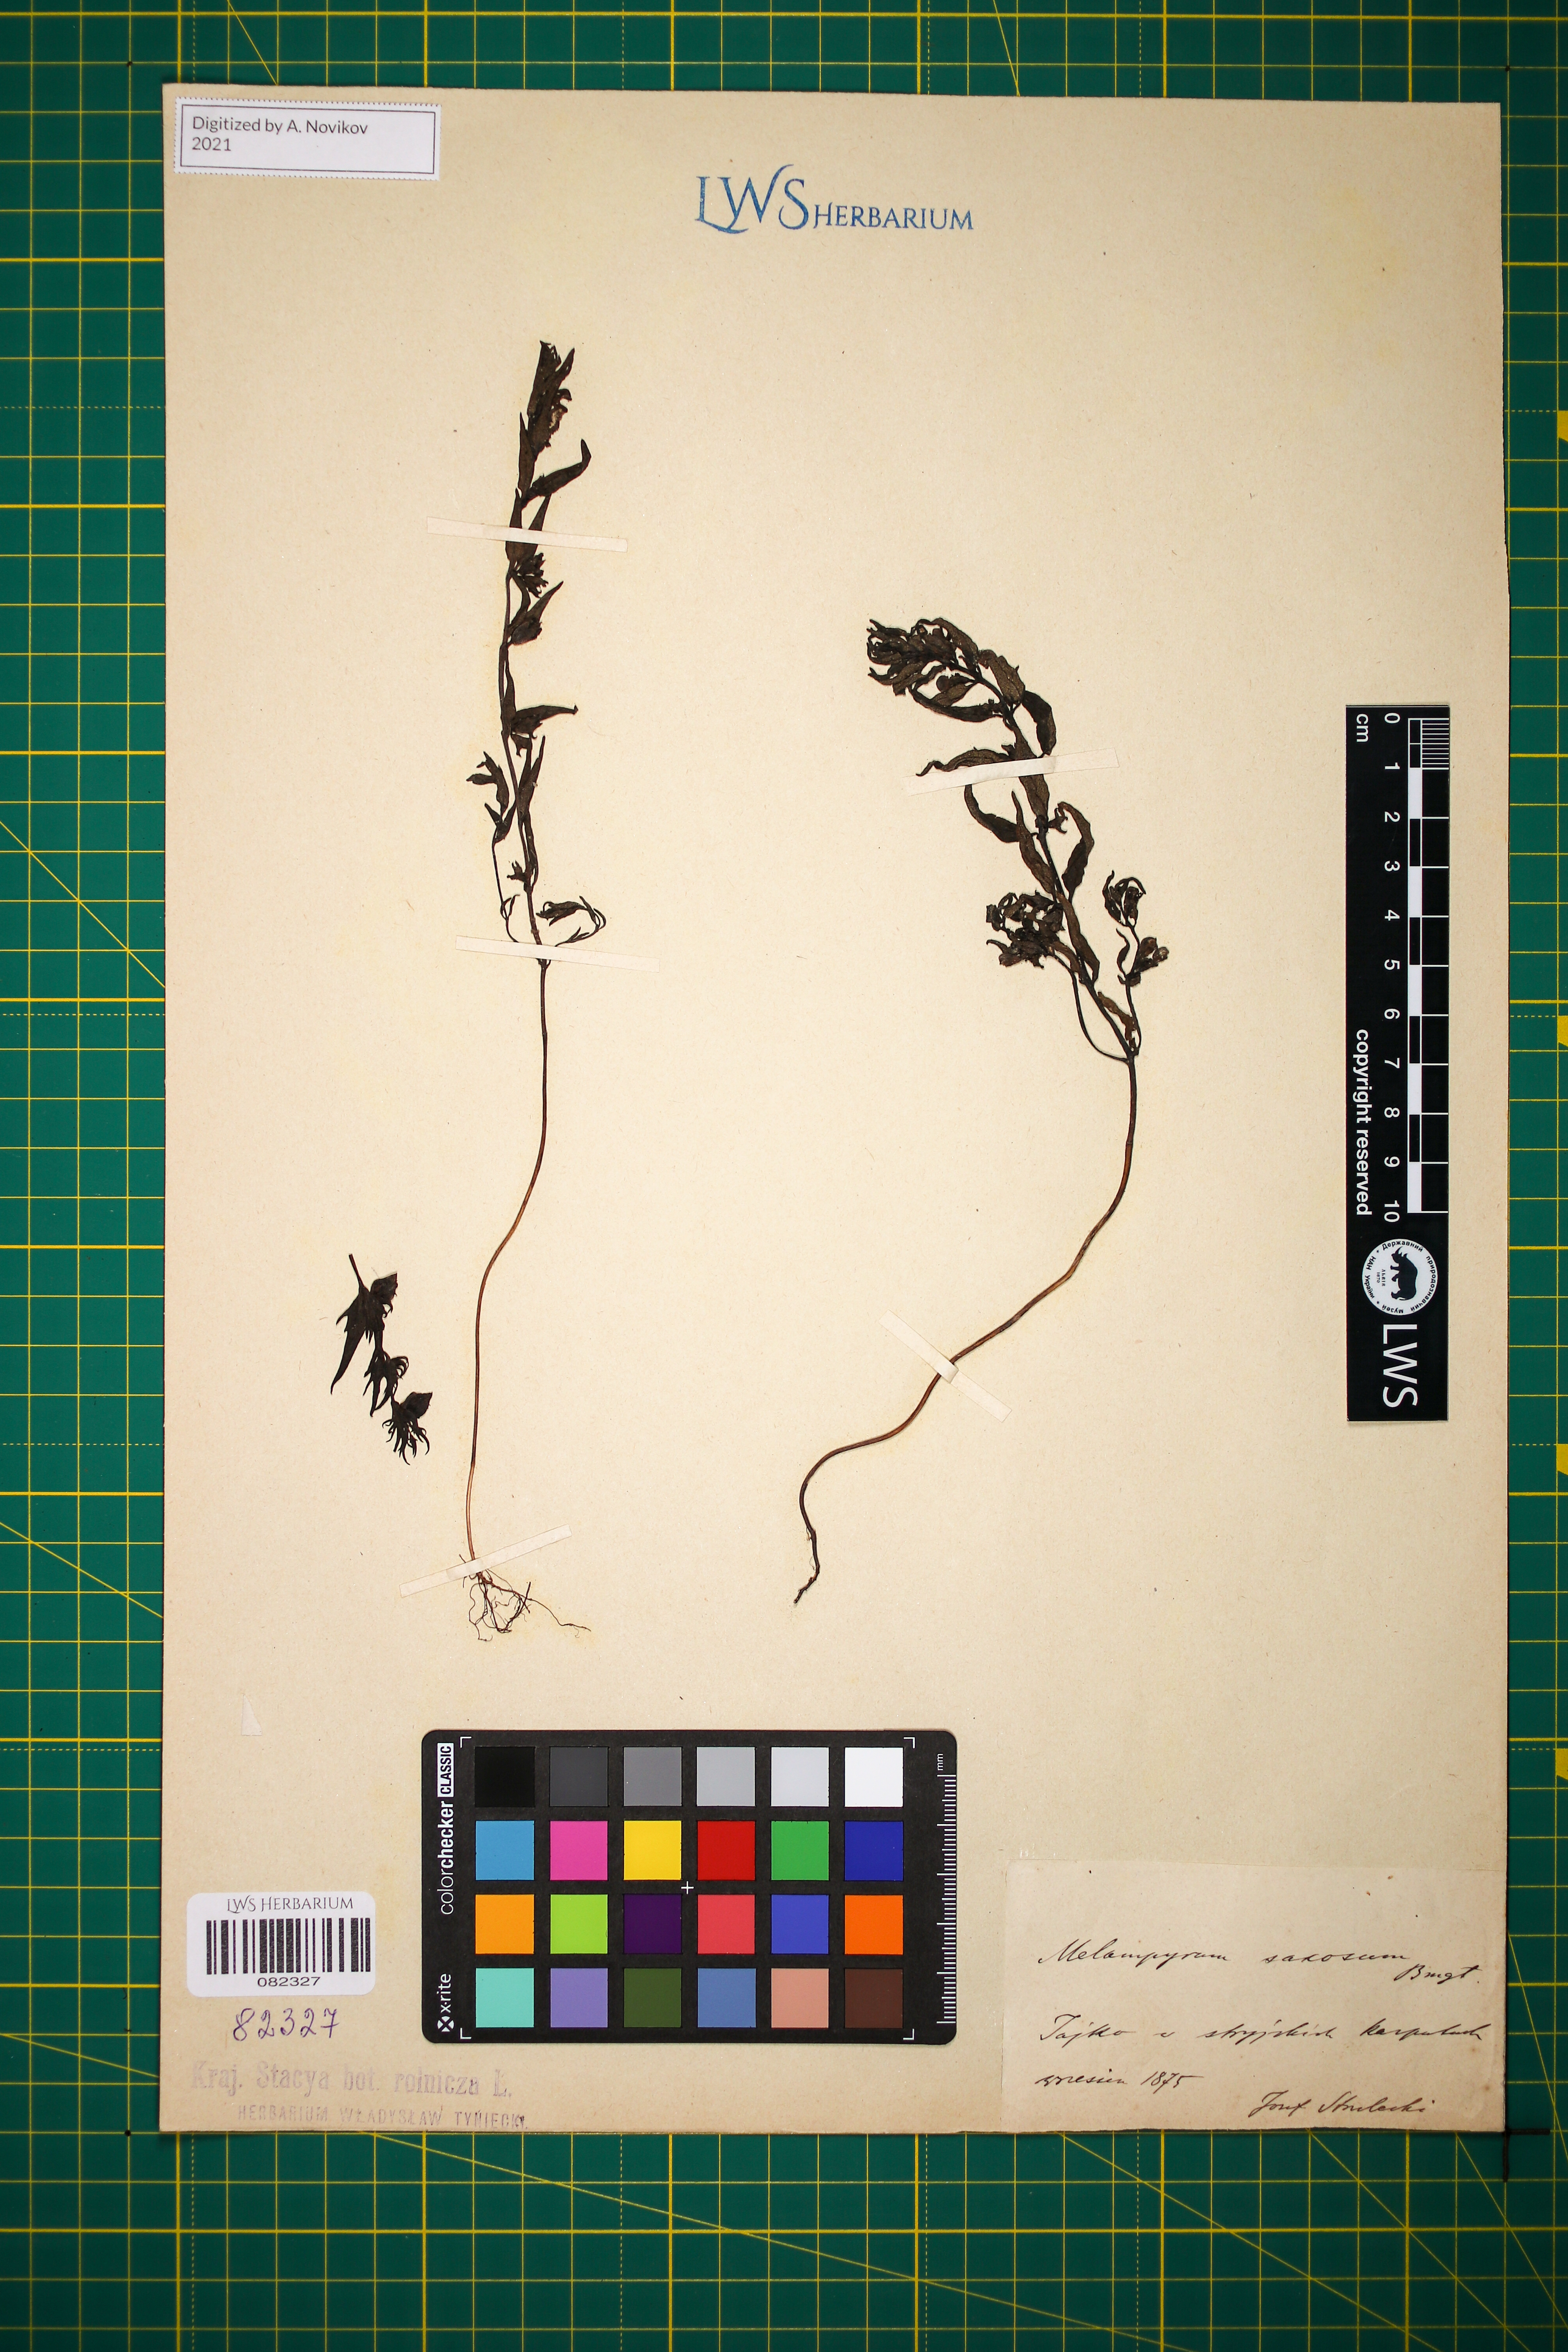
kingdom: Plantae
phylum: Tracheophyta
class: Magnoliopsida
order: Lamiales
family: Orobanchaceae
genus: Melampyrum
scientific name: Melampyrum saxosum
